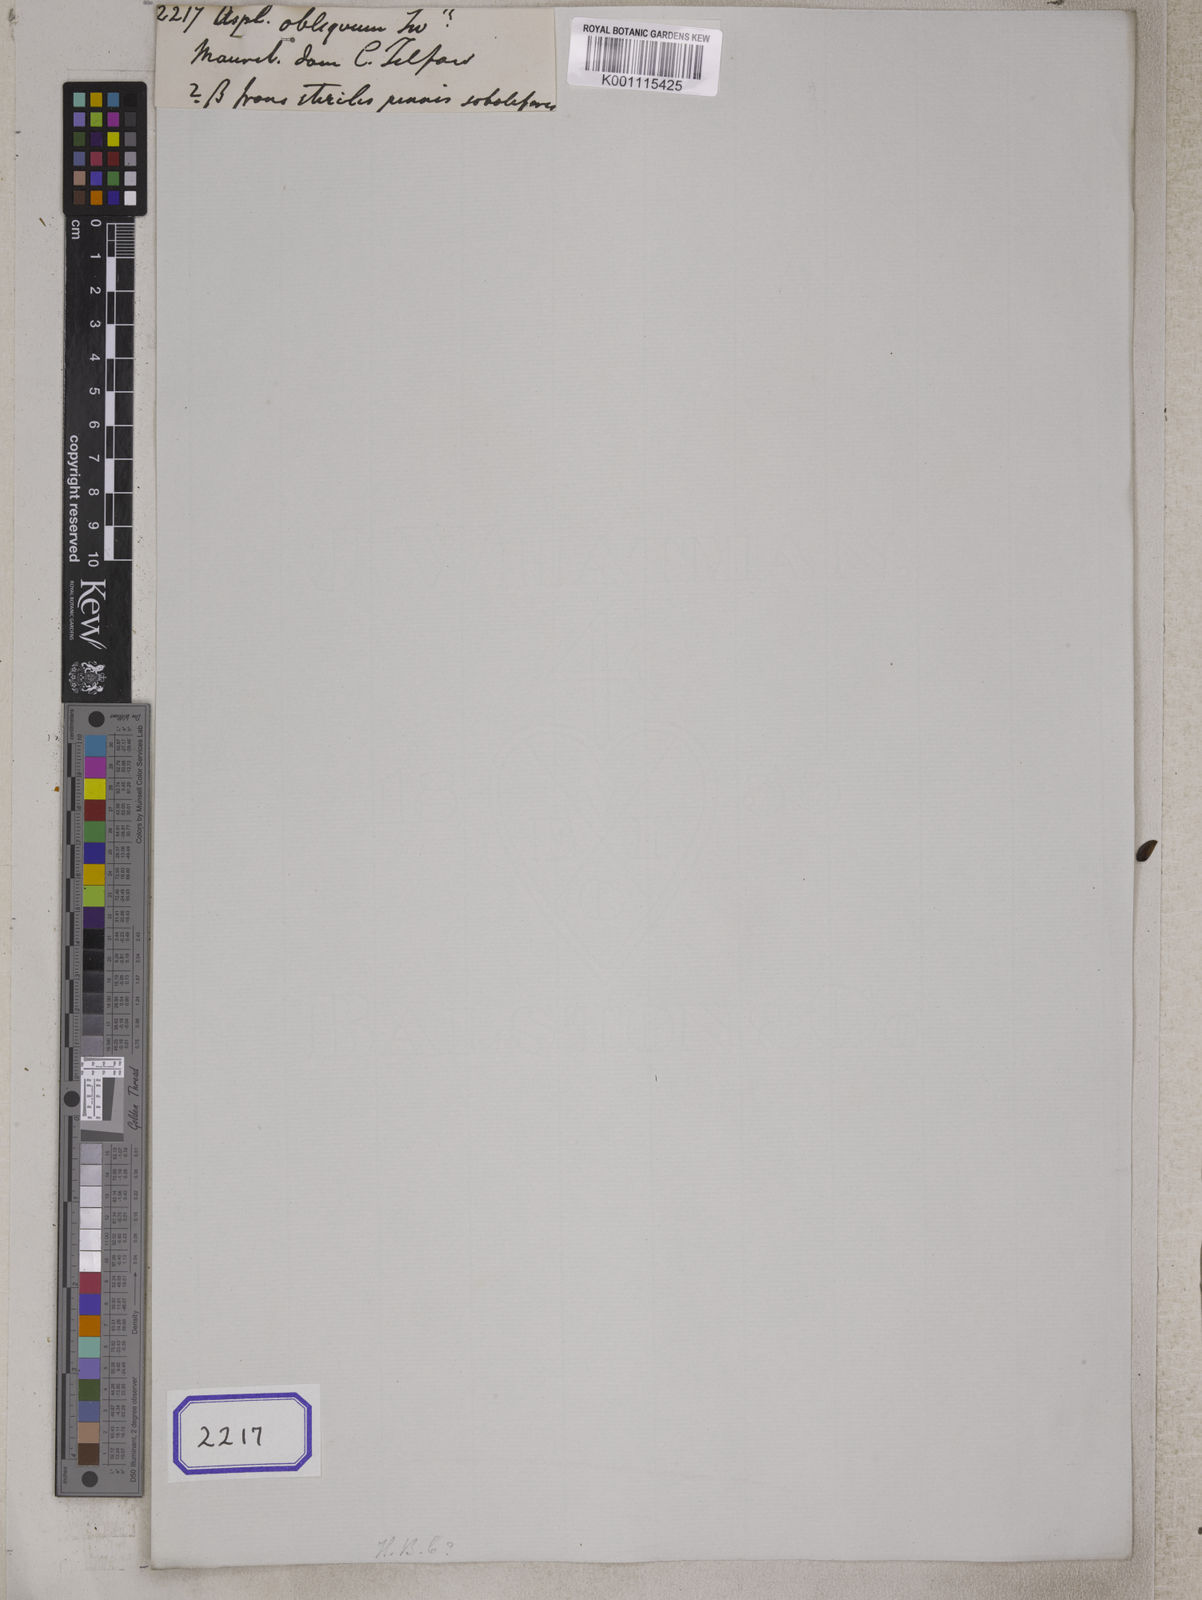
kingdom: Plantae
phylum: Tracheophyta
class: Polypodiopsida
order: Polypodiales
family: Aspleniaceae
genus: Asplenium
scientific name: Asplenium
